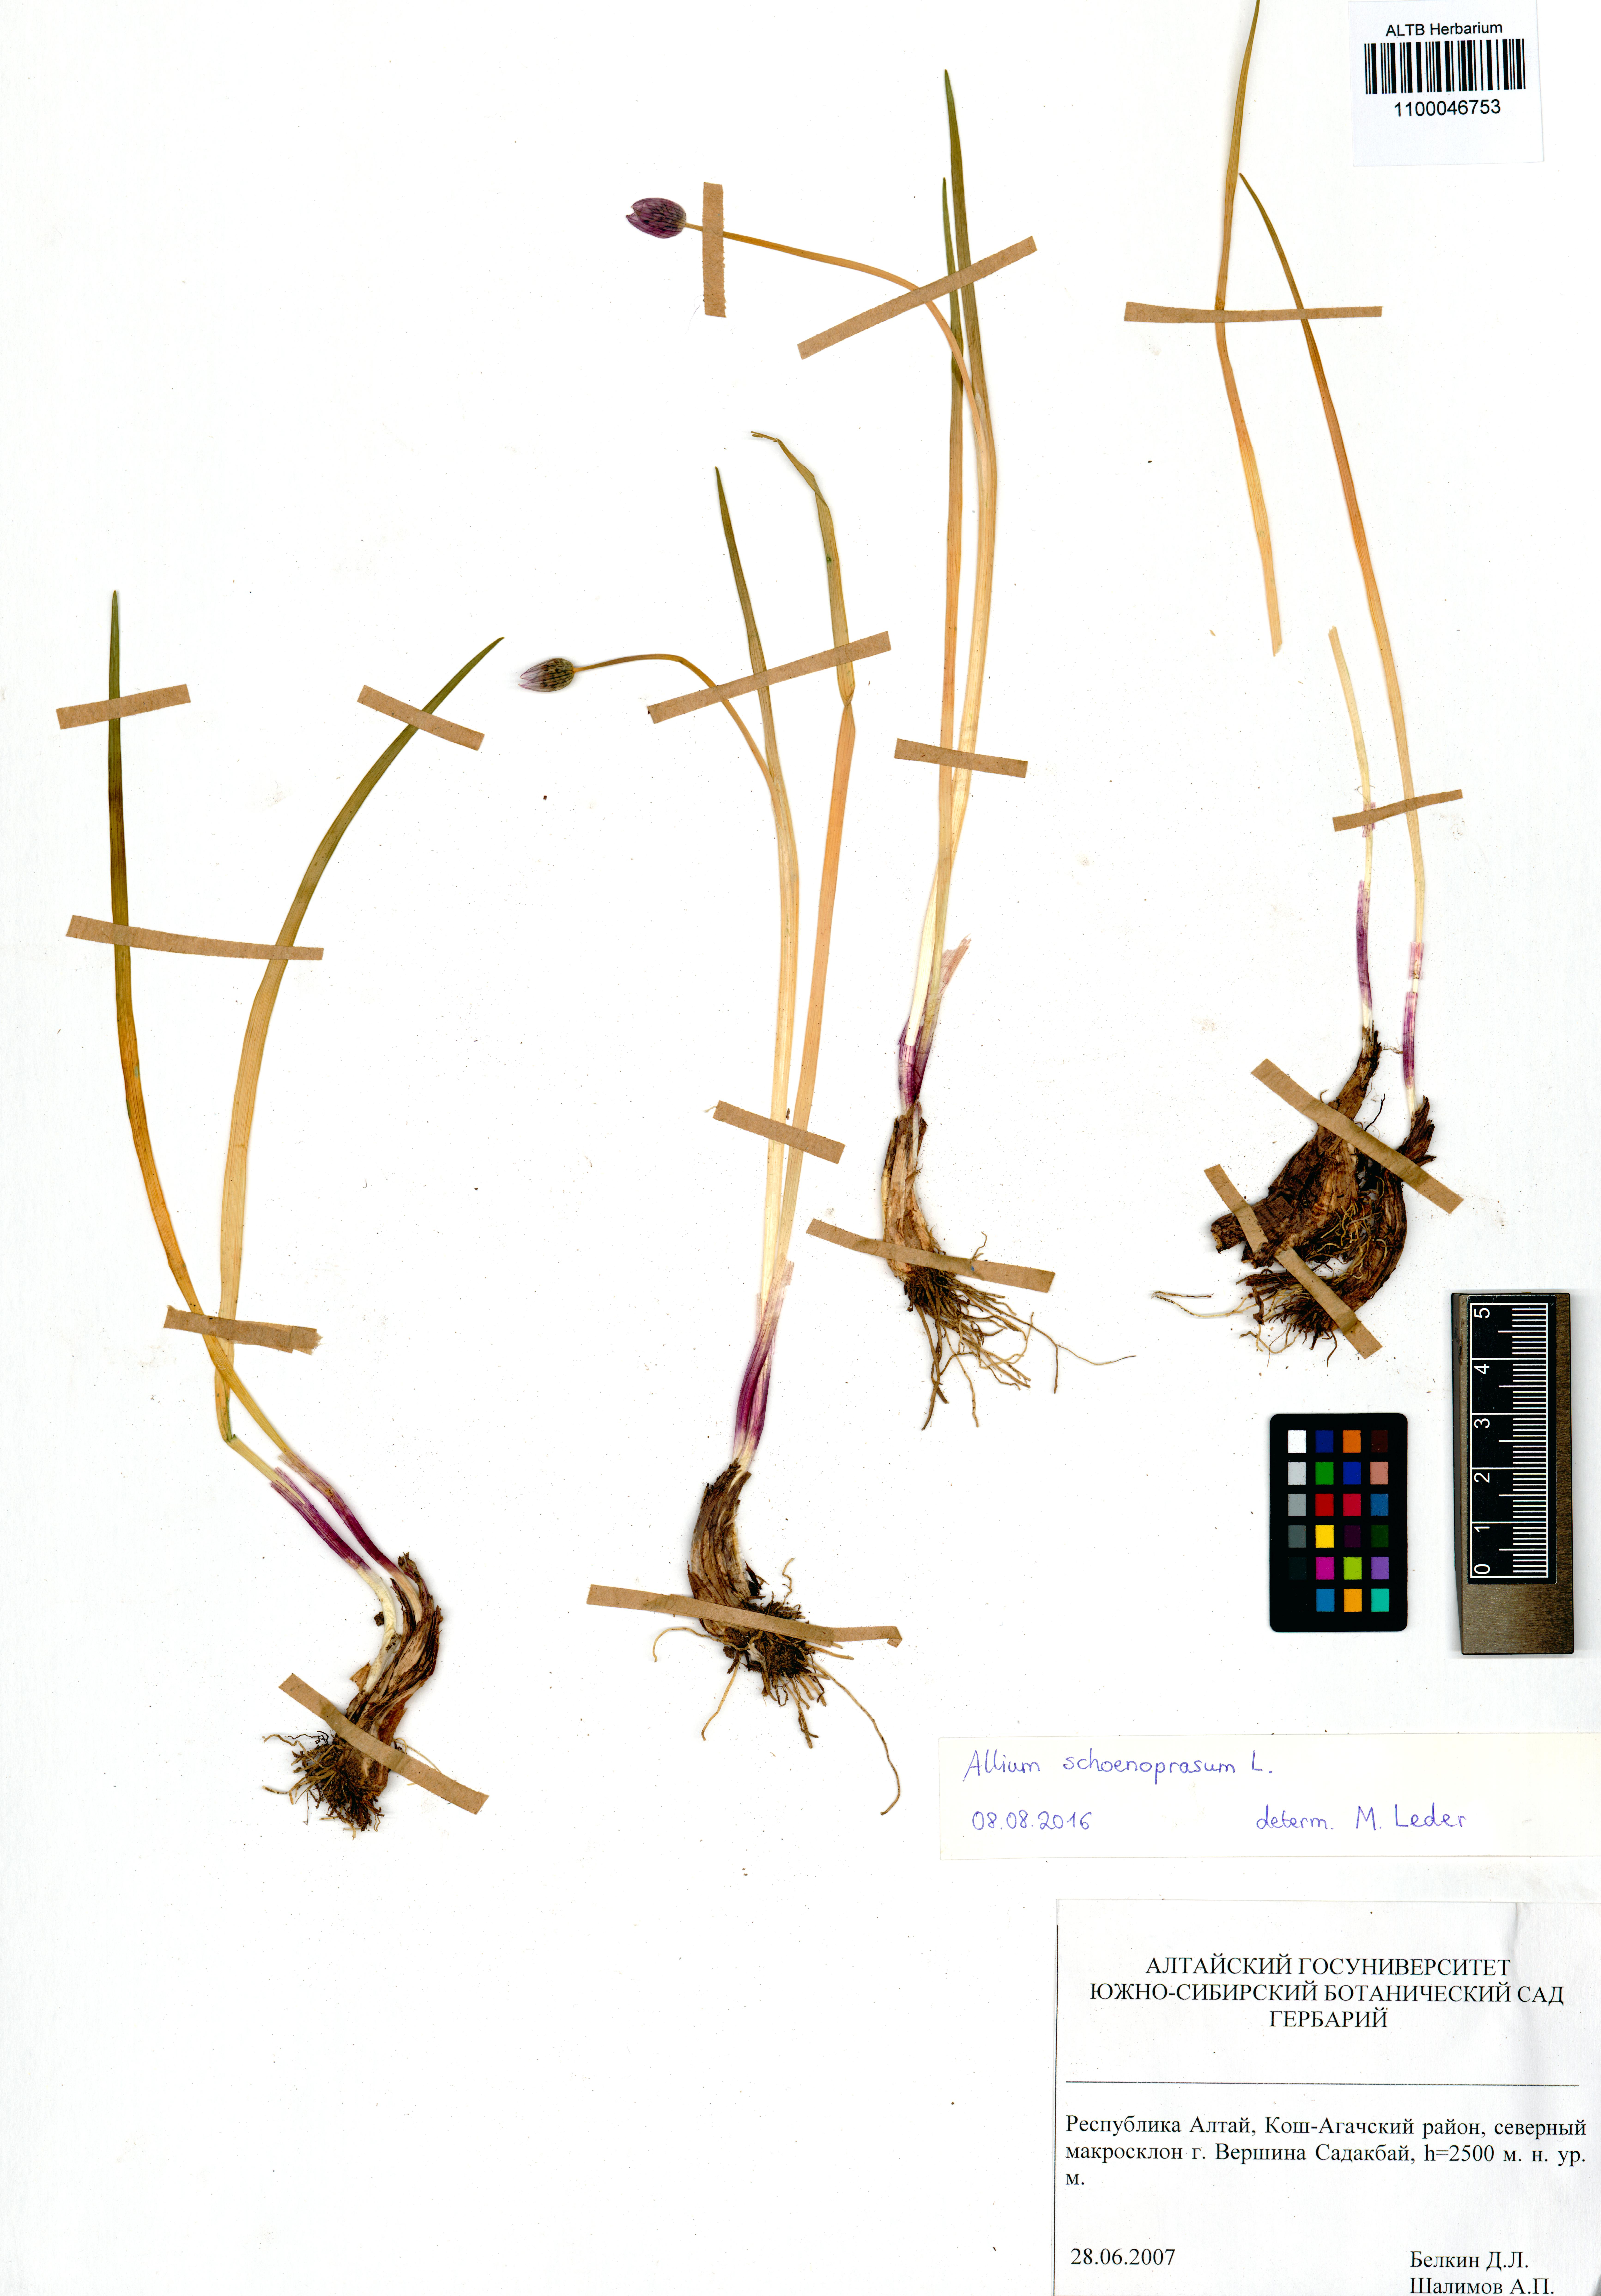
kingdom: Plantae
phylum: Tracheophyta
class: Liliopsida
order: Asparagales
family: Amaryllidaceae
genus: Allium
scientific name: Allium schoenoprasum
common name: Chives
